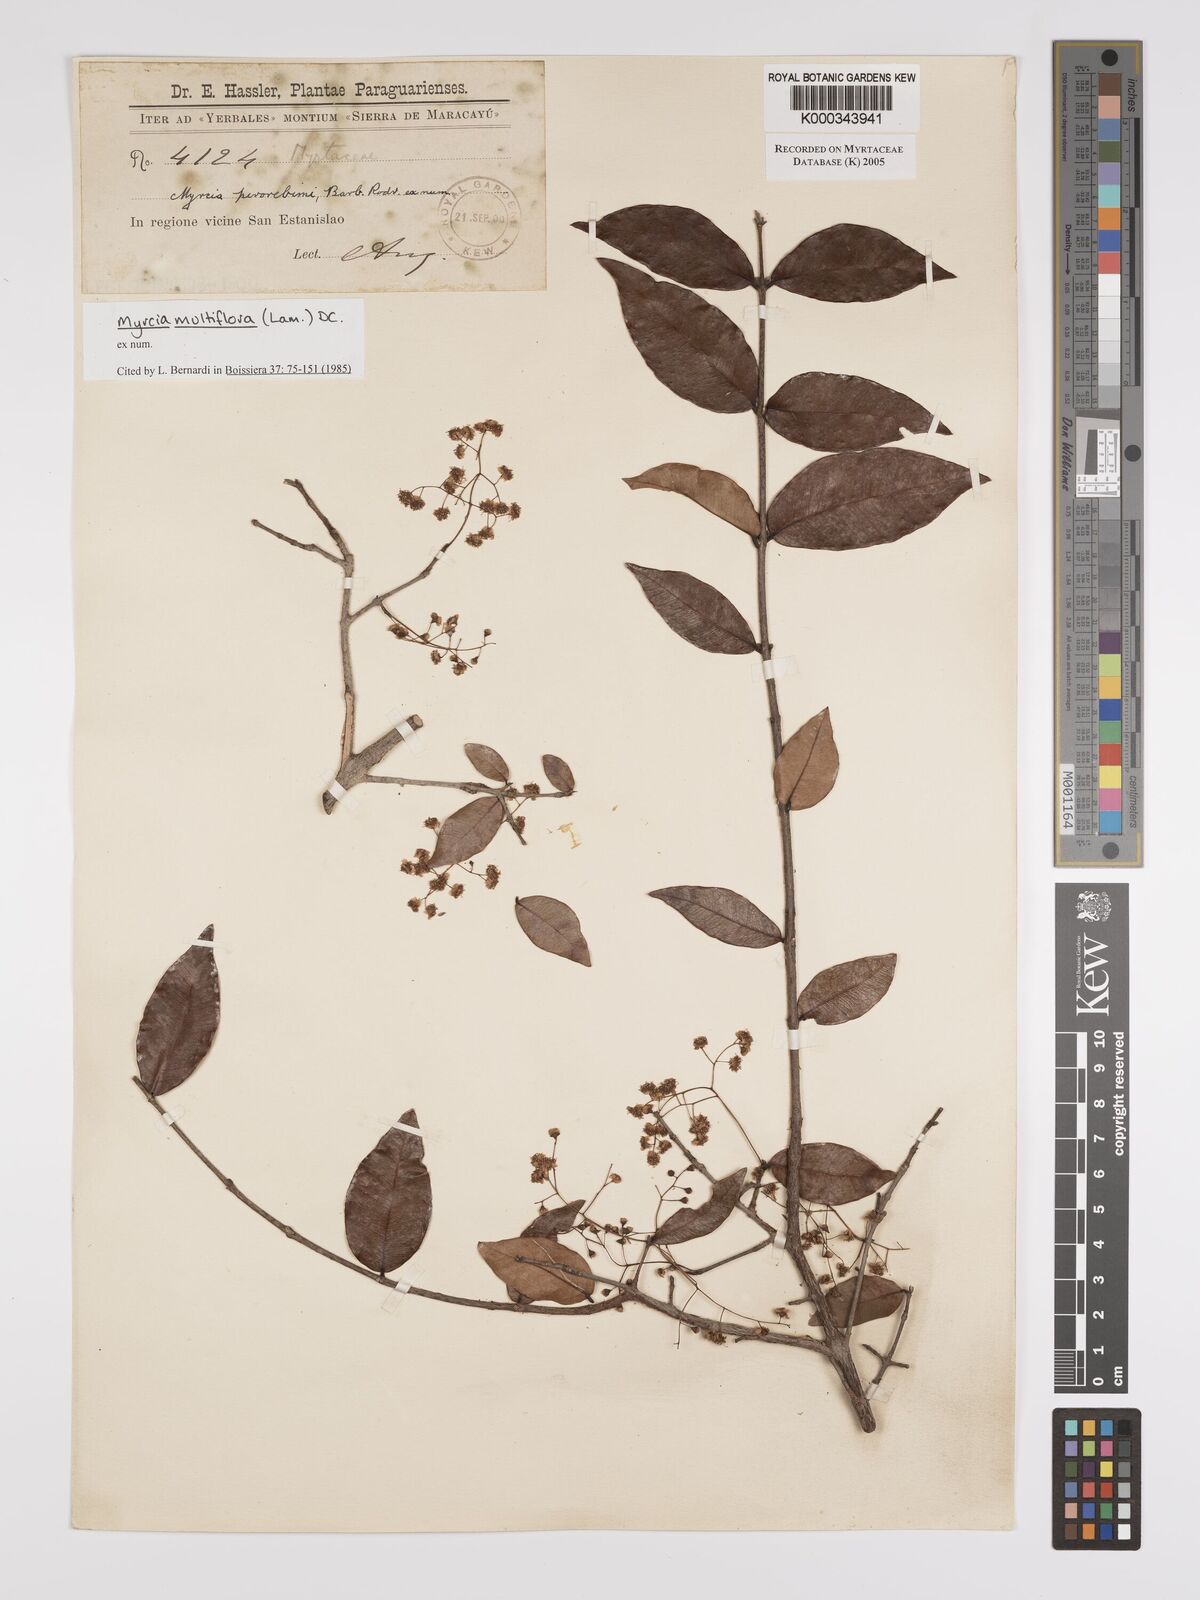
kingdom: Plantae
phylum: Tracheophyta
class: Magnoliopsida
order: Myrtales
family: Myrtaceae
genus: Myrcia
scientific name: Myrcia multiflora
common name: Pedra hume
